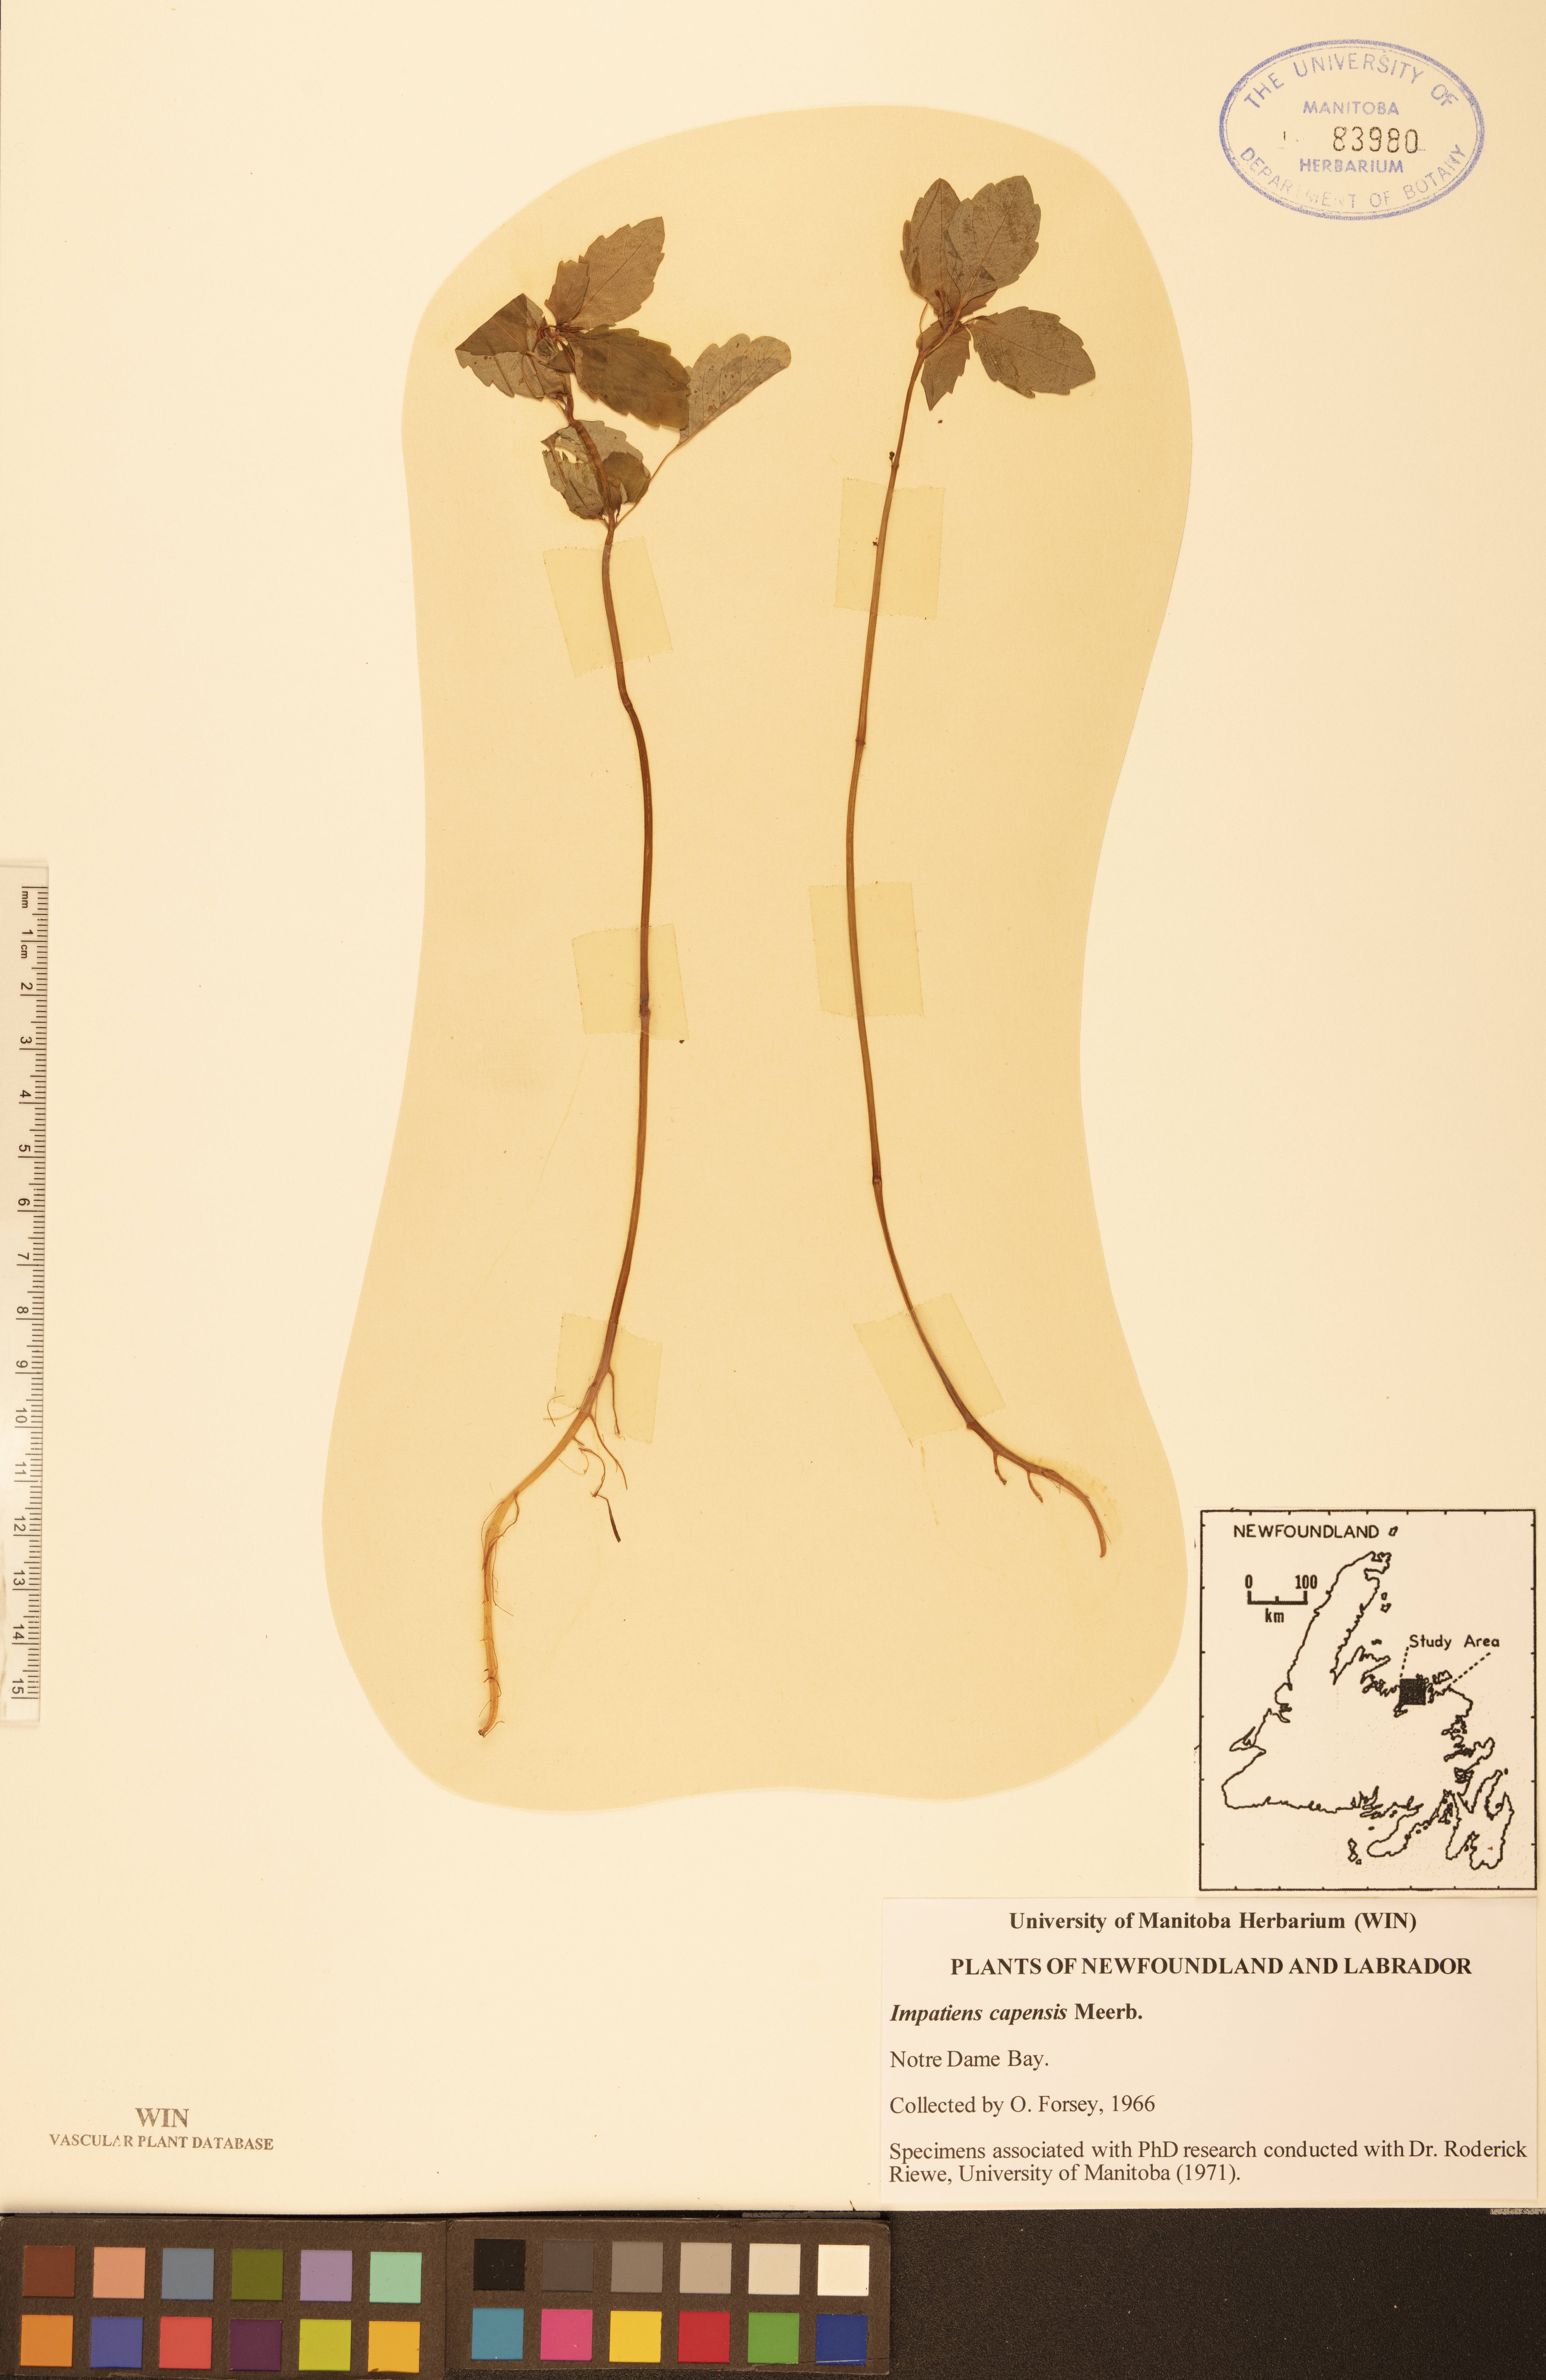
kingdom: Plantae
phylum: Tracheophyta
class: Magnoliopsida
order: Ericales
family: Balsaminaceae
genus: Impatiens
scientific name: Impatiens capensis
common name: Orange balsam
